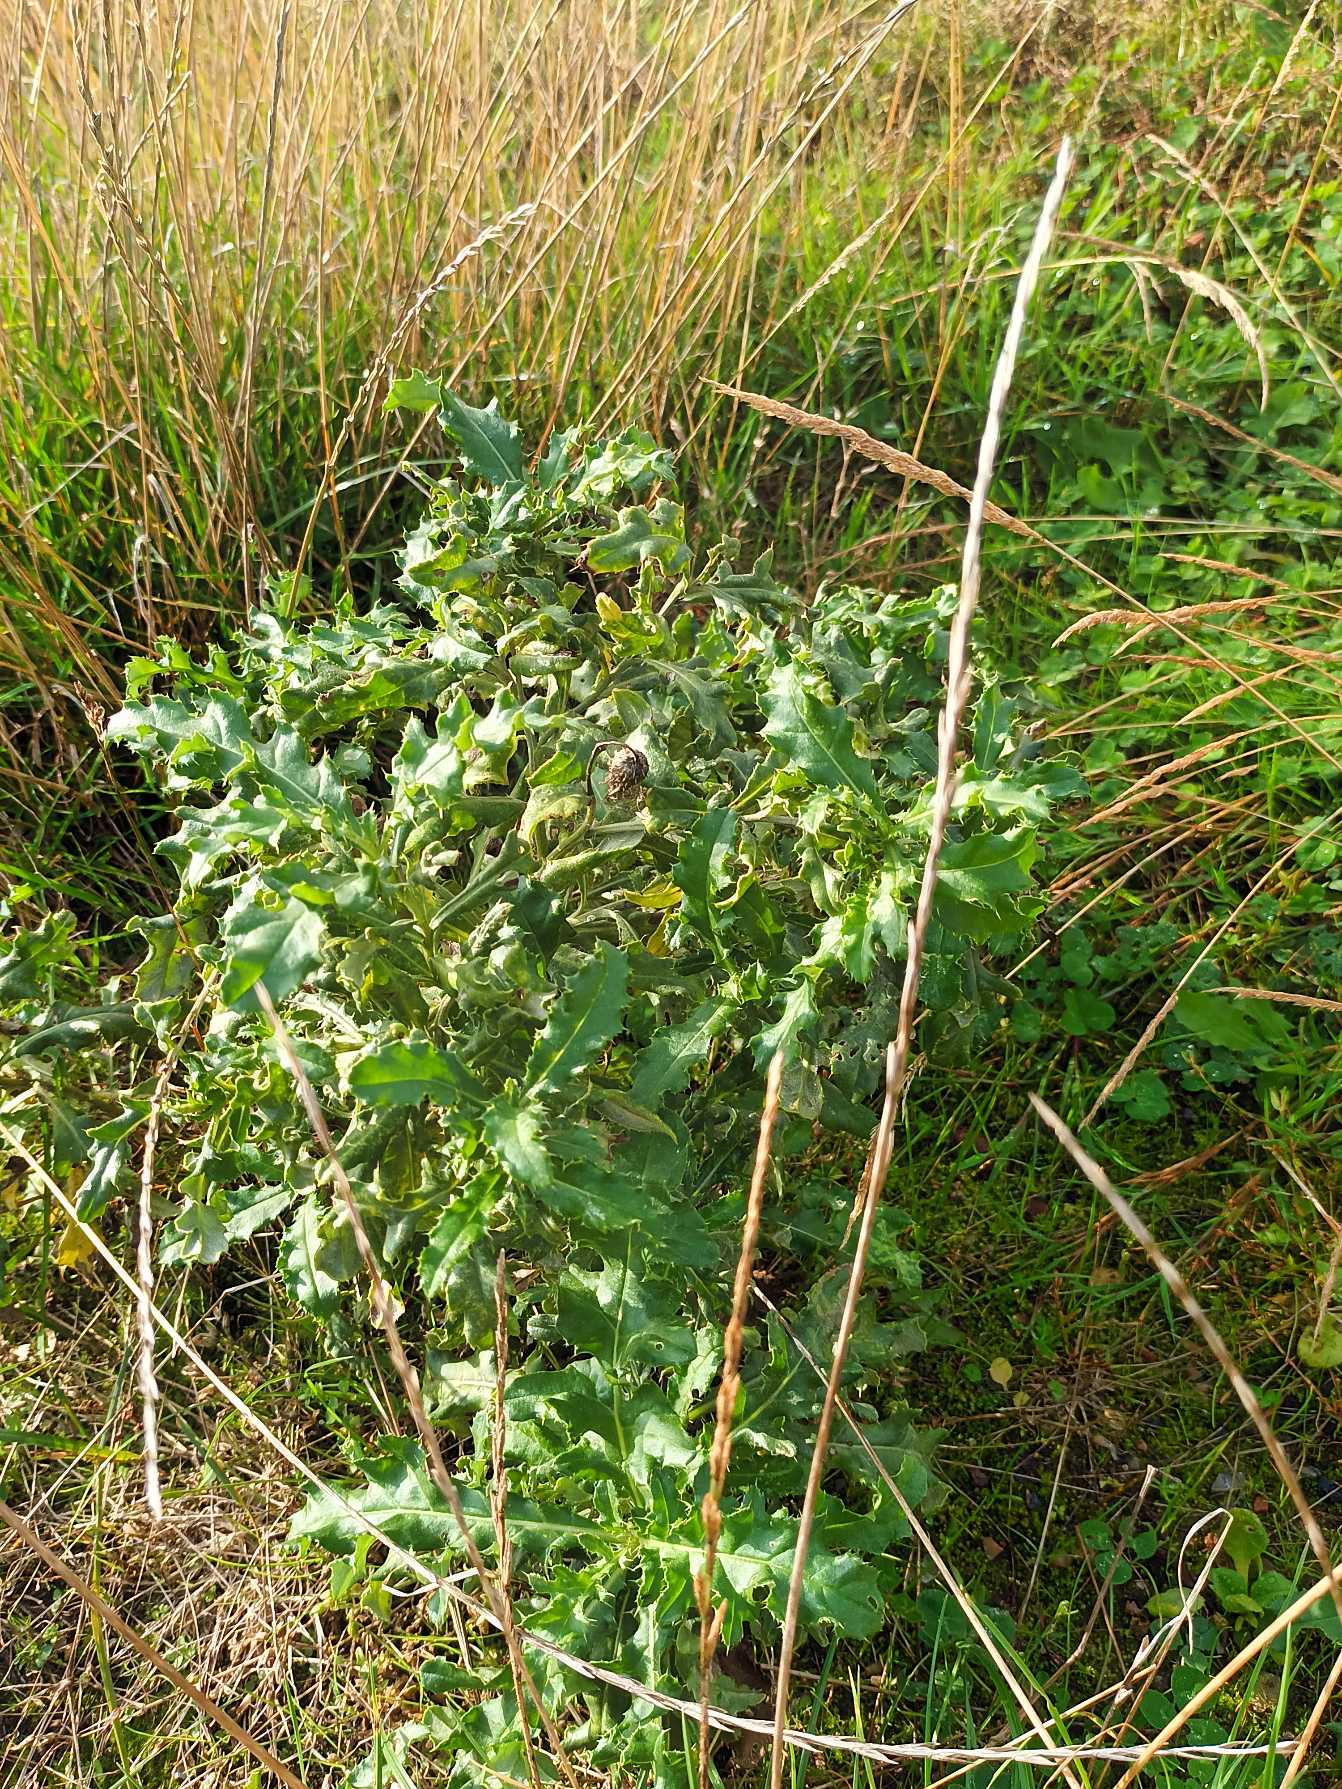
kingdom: Plantae
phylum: Tracheophyta
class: Magnoliopsida
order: Asterales
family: Asteraceae
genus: Cirsium
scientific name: Cirsium arvense
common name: Ager-tidsel
